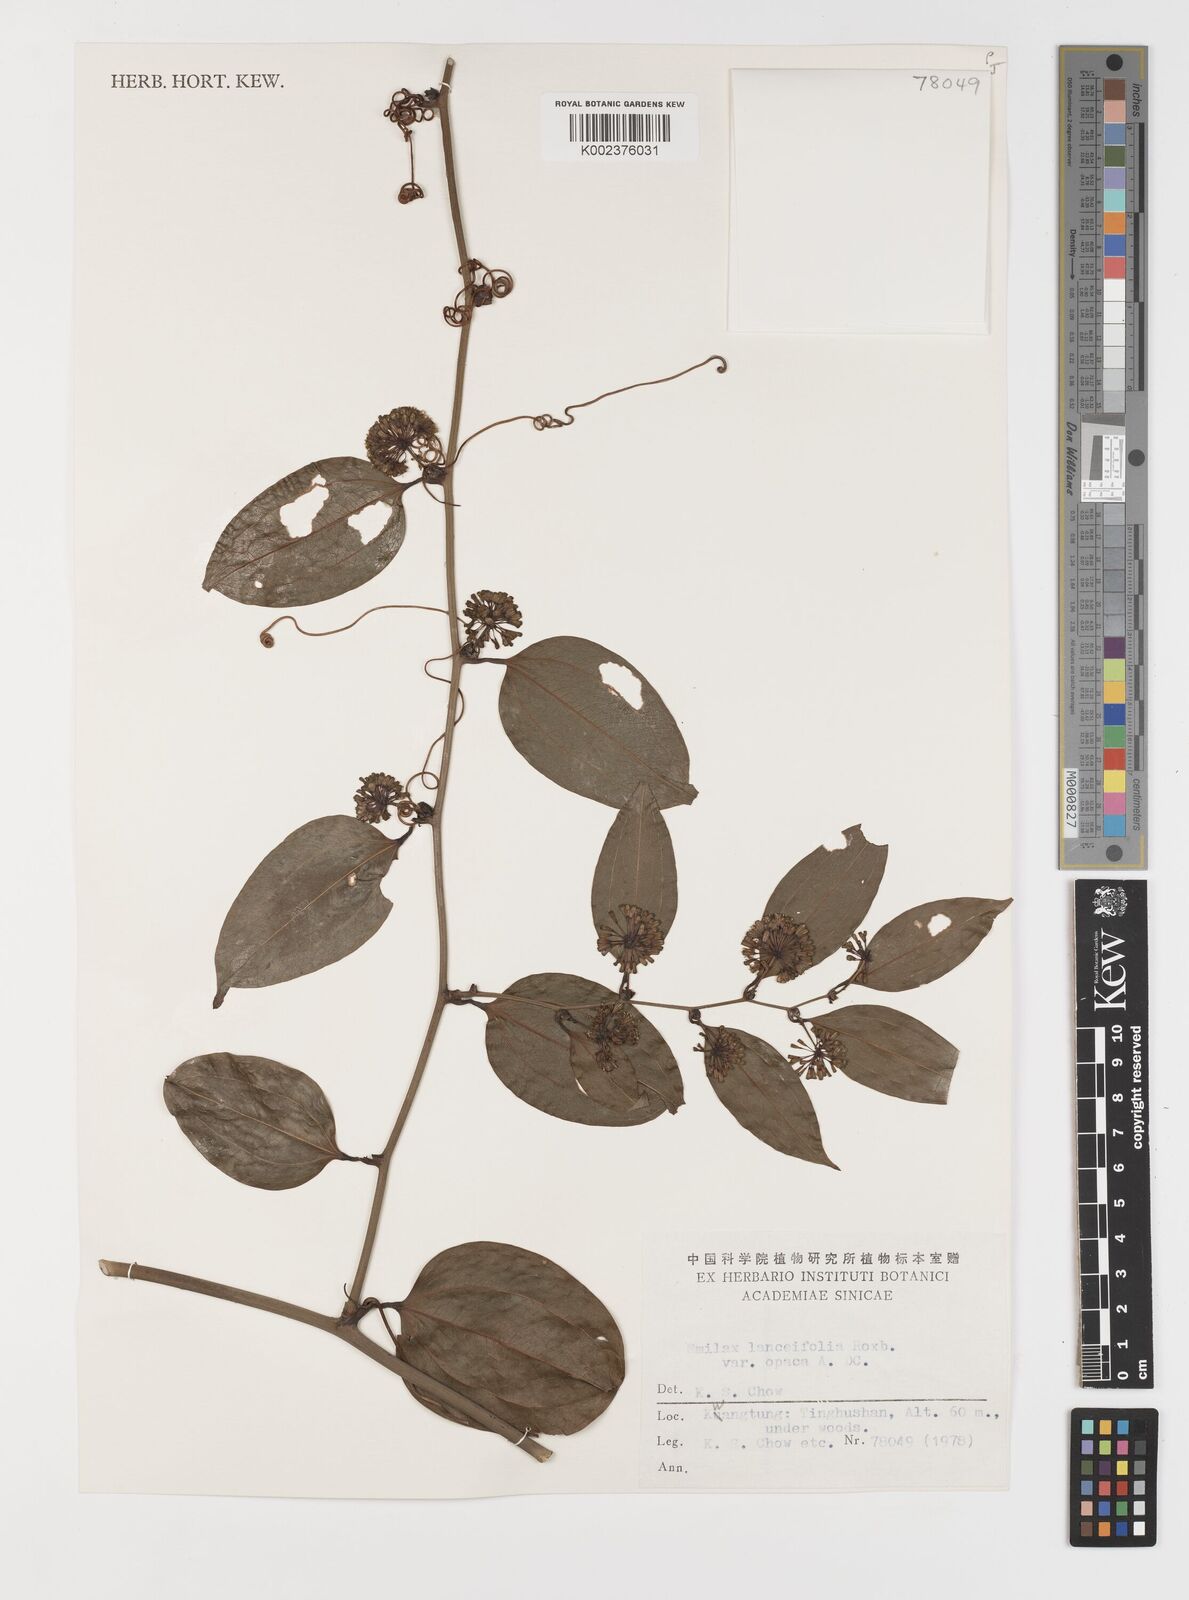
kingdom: Plantae
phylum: Tracheophyta
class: Liliopsida
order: Liliales
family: Smilacaceae
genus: Smilax
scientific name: Smilax laevis
